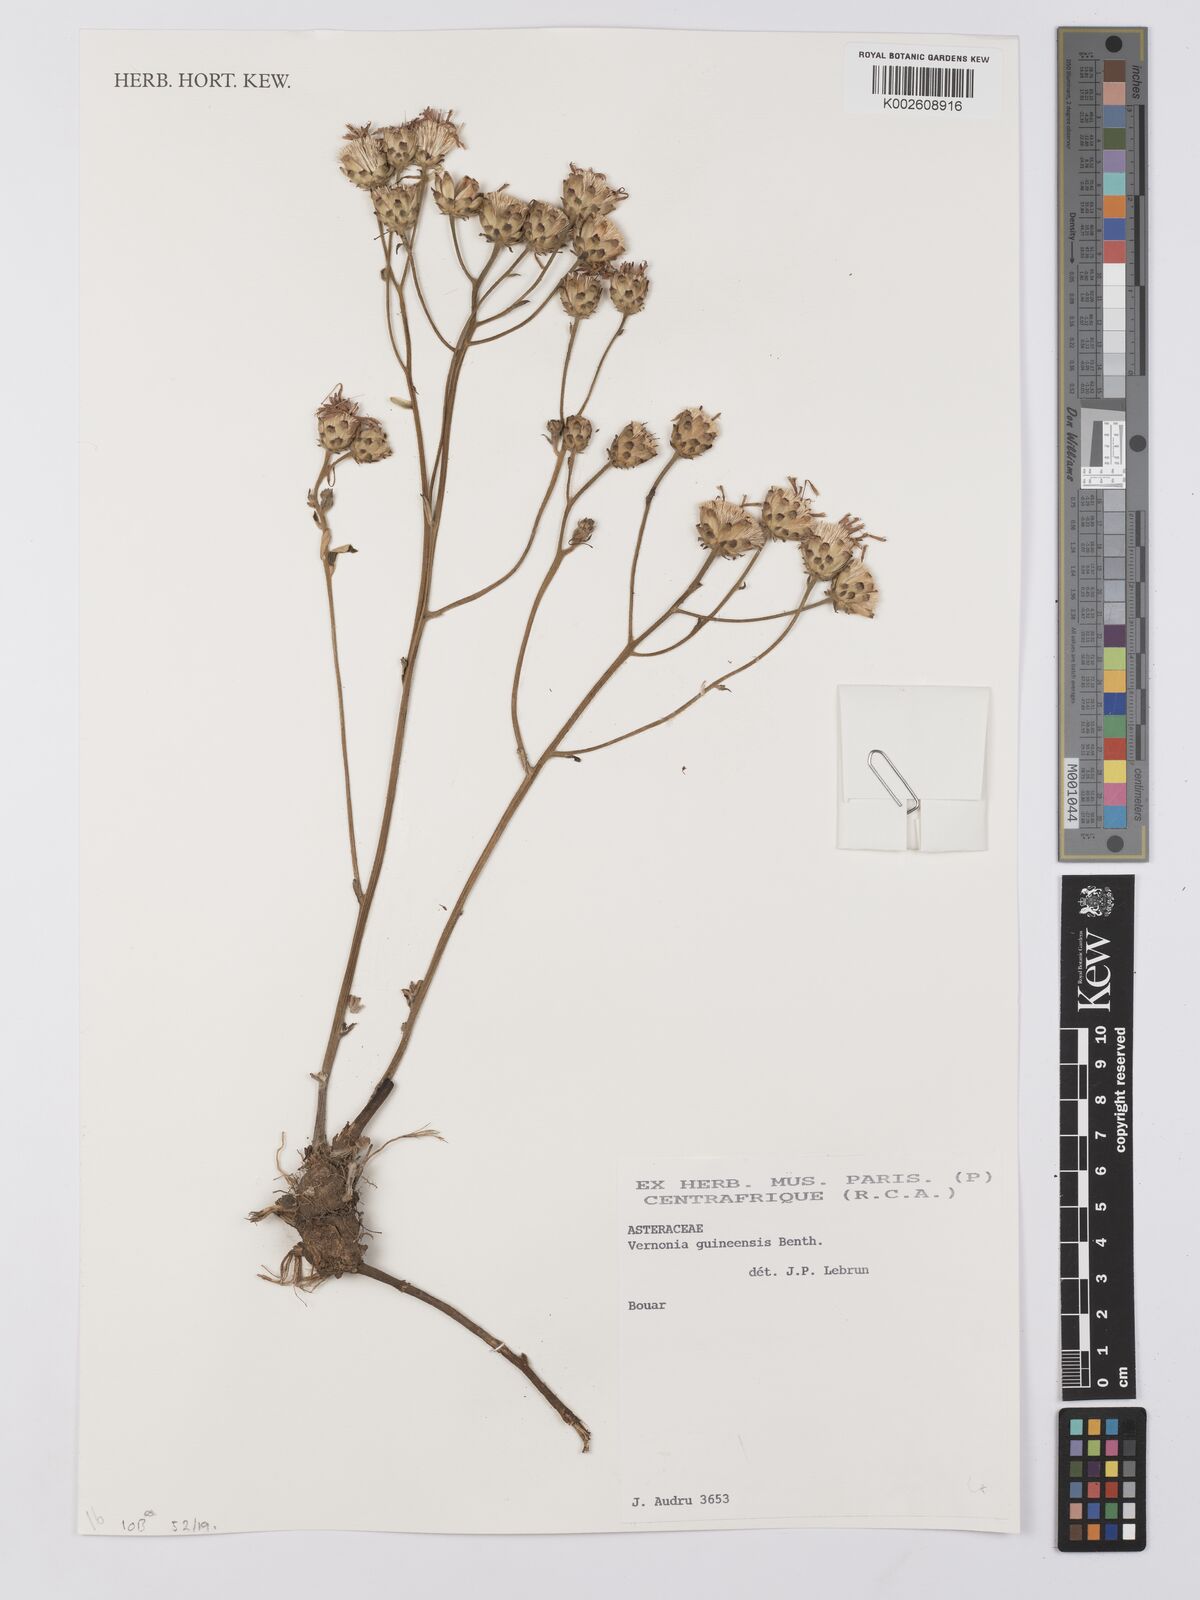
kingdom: Plantae
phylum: Tracheophyta
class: Magnoliopsida
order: Asterales
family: Asteraceae
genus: Baccharoides
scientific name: Baccharoides guineensis
